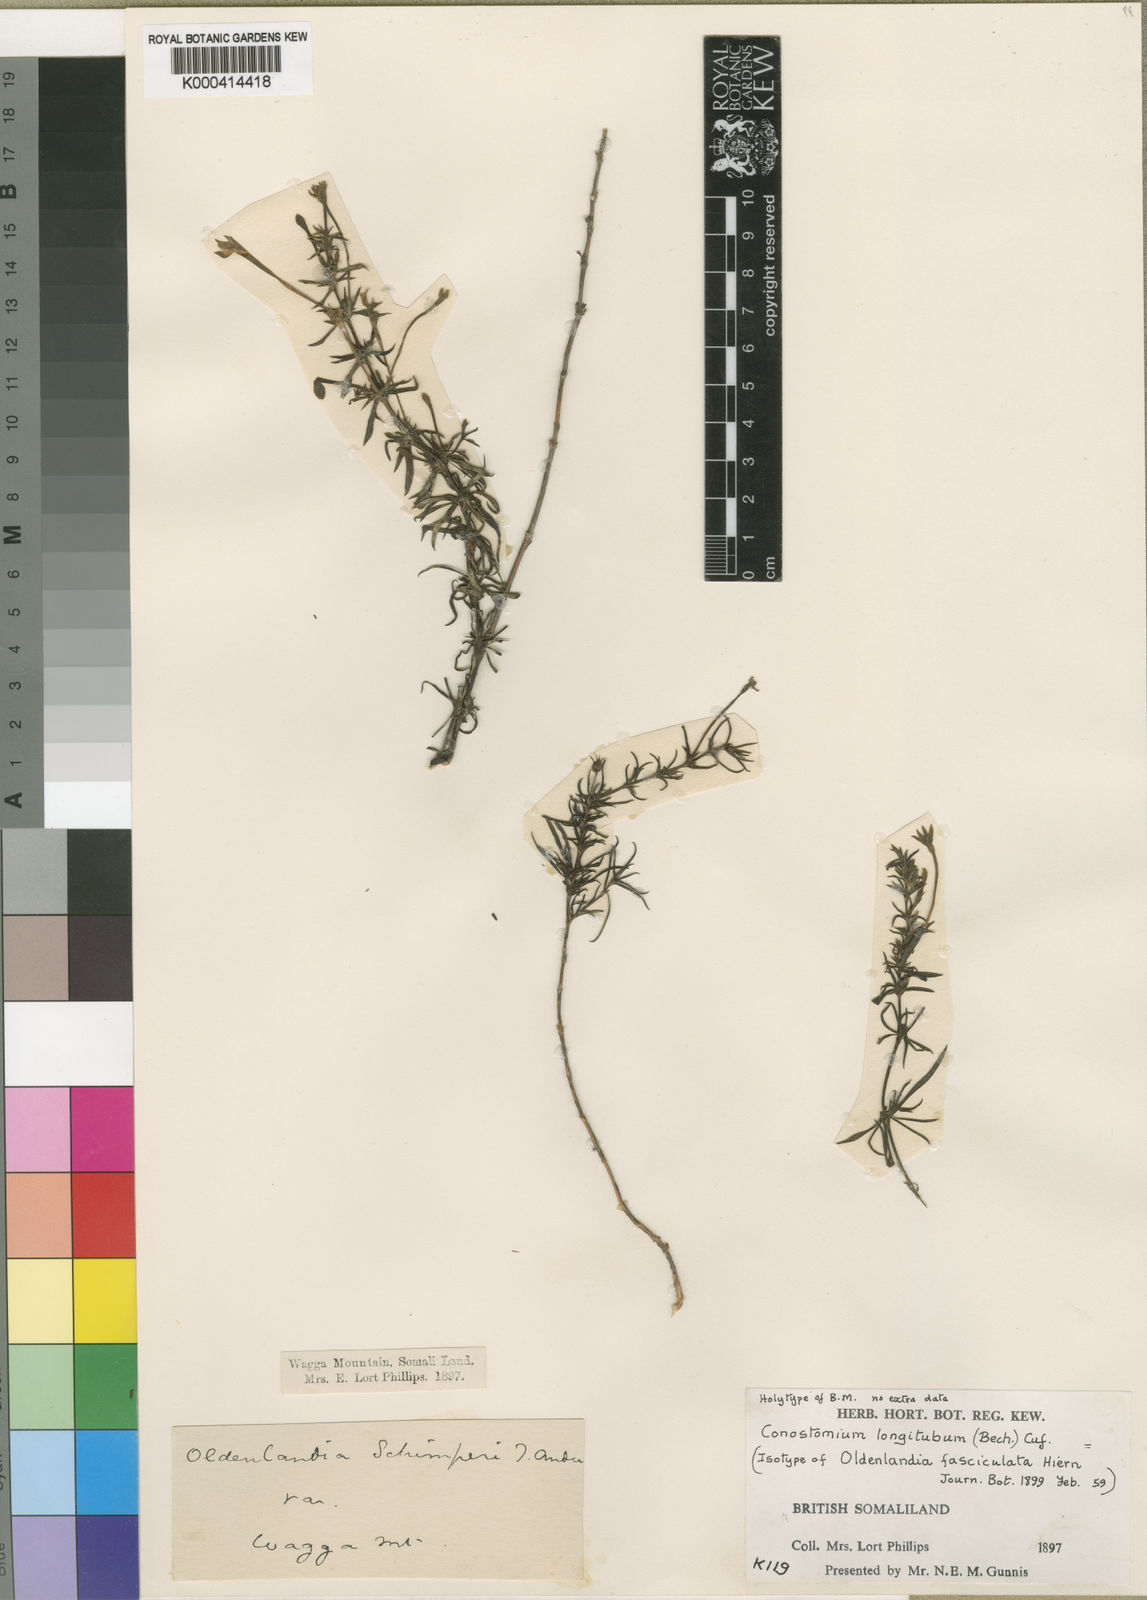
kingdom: Plantae
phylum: Tracheophyta
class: Magnoliopsida
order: Gentianales
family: Rubiaceae
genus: Conostomium
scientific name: Conostomium longitubum
